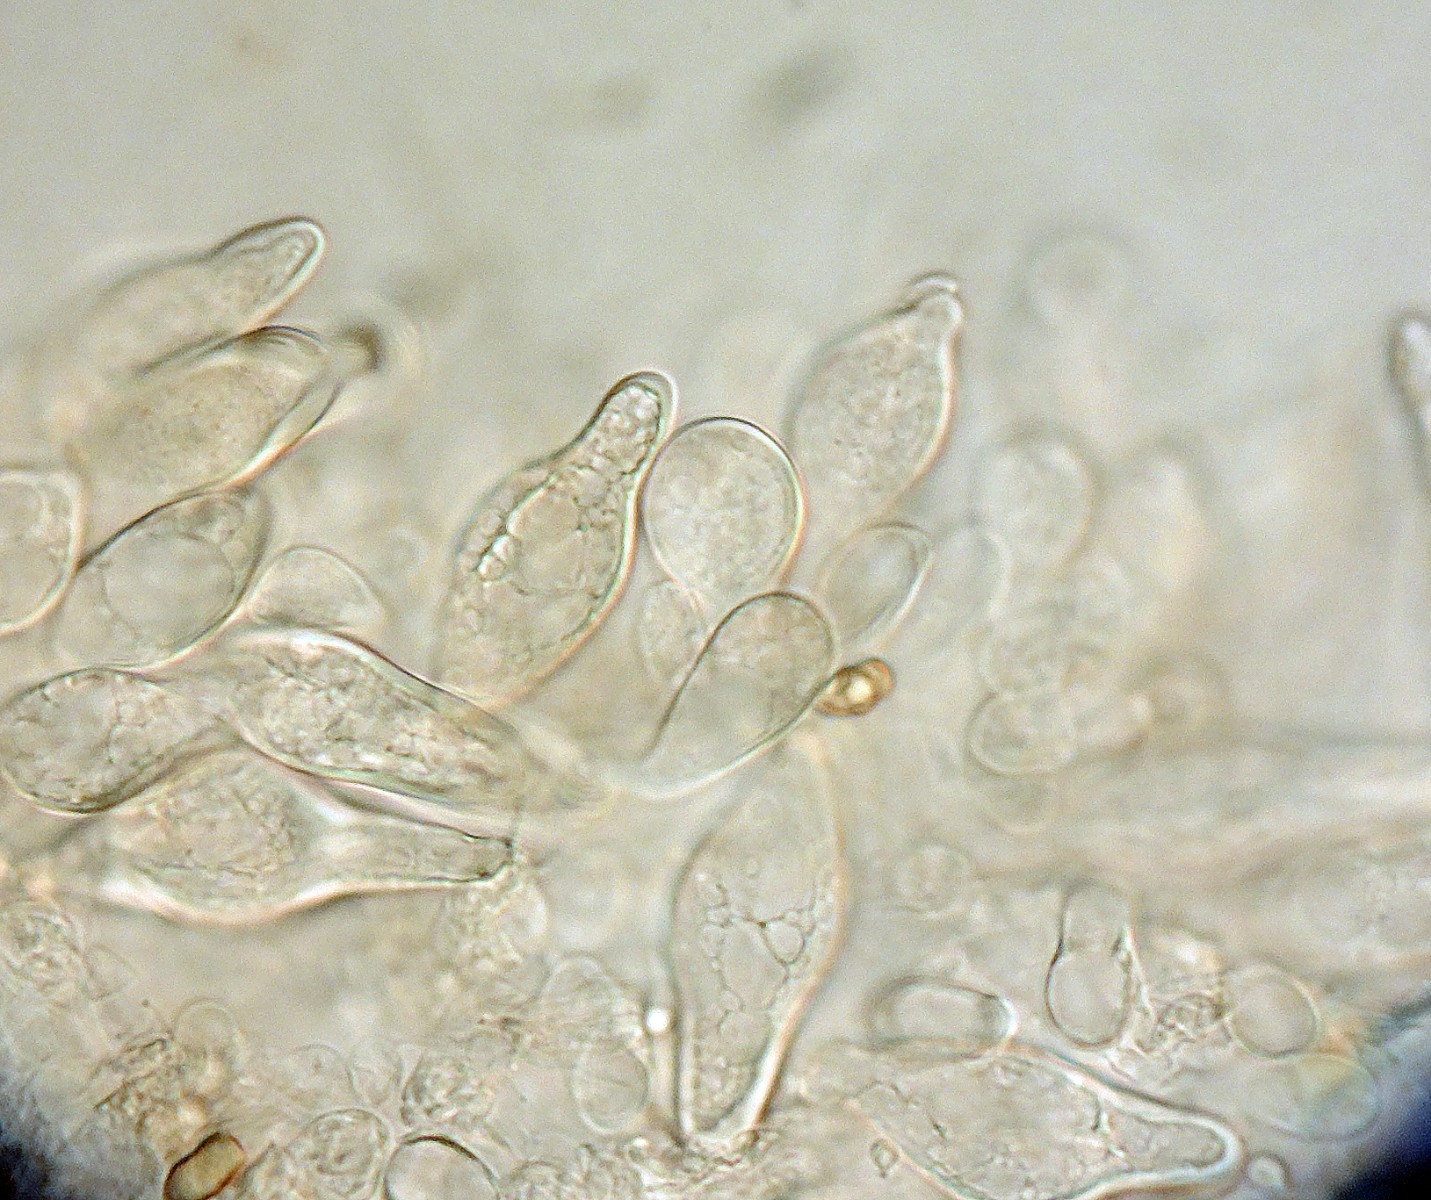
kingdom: Fungi
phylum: Basidiomycota
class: Agaricomycetes
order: Agaricales
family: Inocybaceae
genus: Inocybe
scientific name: Inocybe curvipes
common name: plæne-trævlhat
